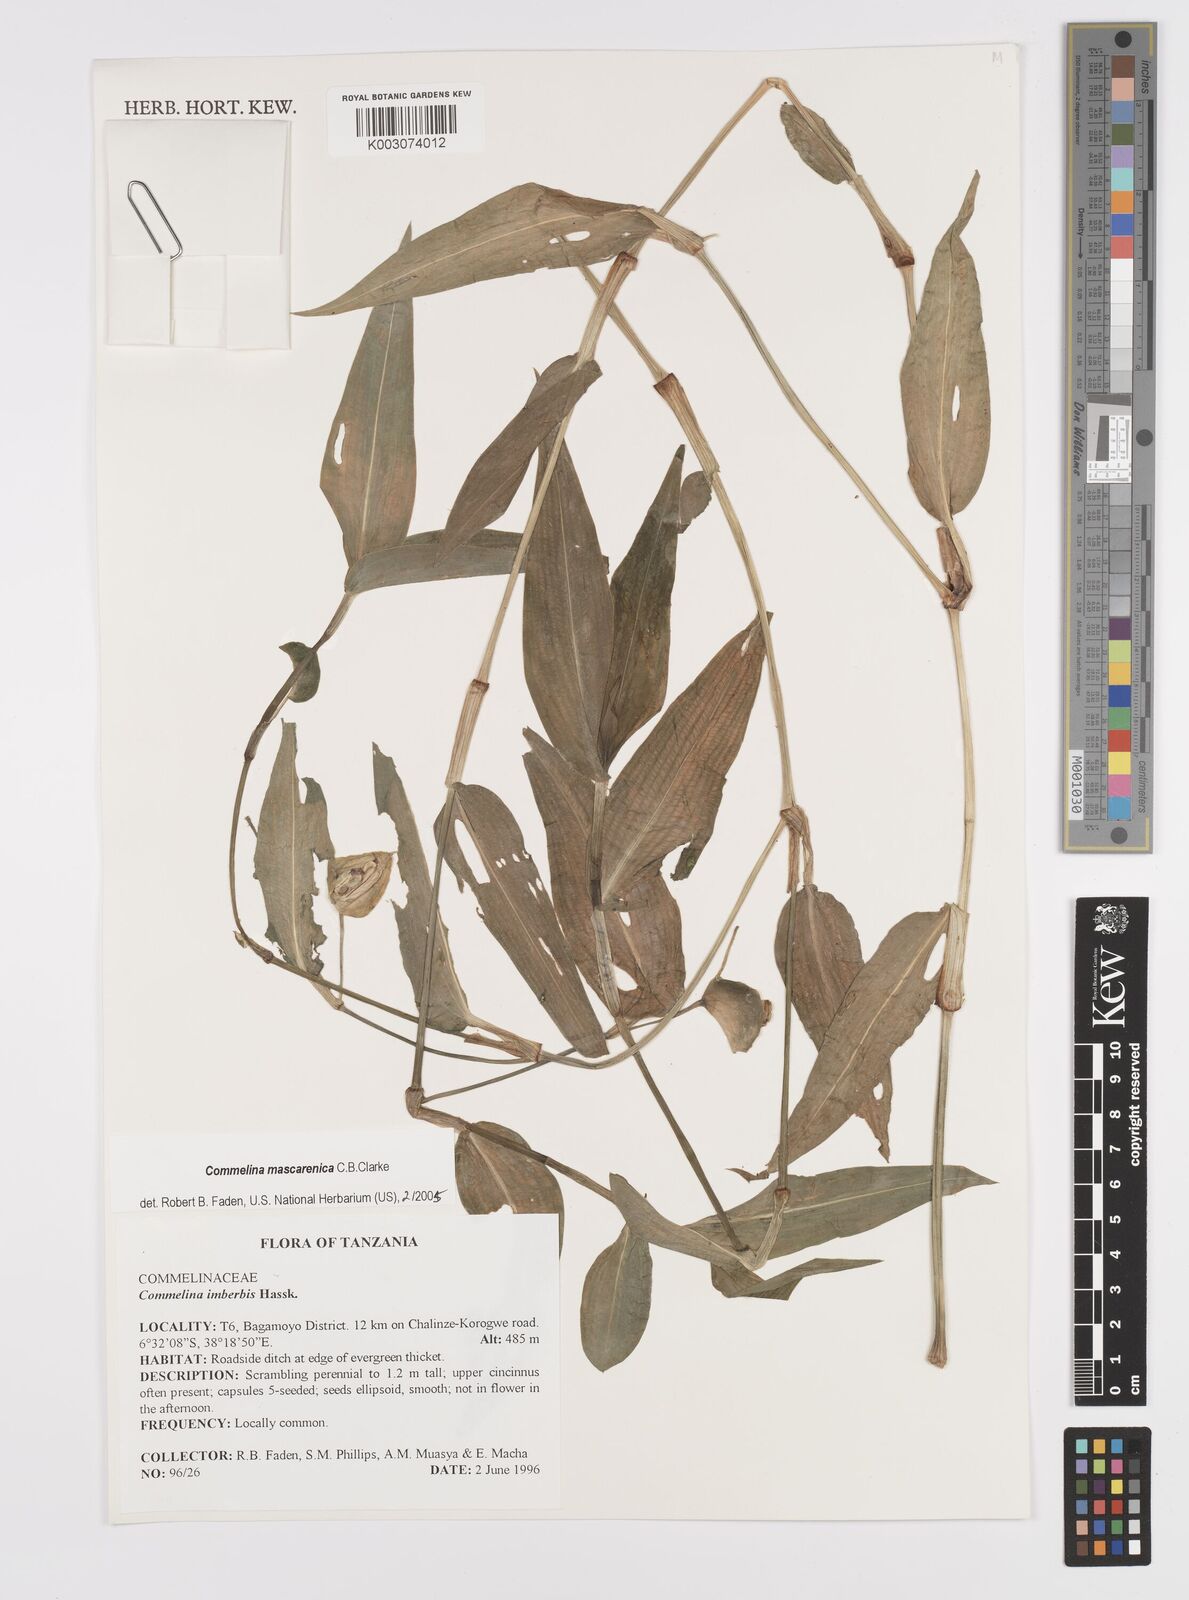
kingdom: Plantae
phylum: Tracheophyta
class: Liliopsida
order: Commelinales
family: Commelinaceae
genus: Commelina
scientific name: Commelina mascarenica
